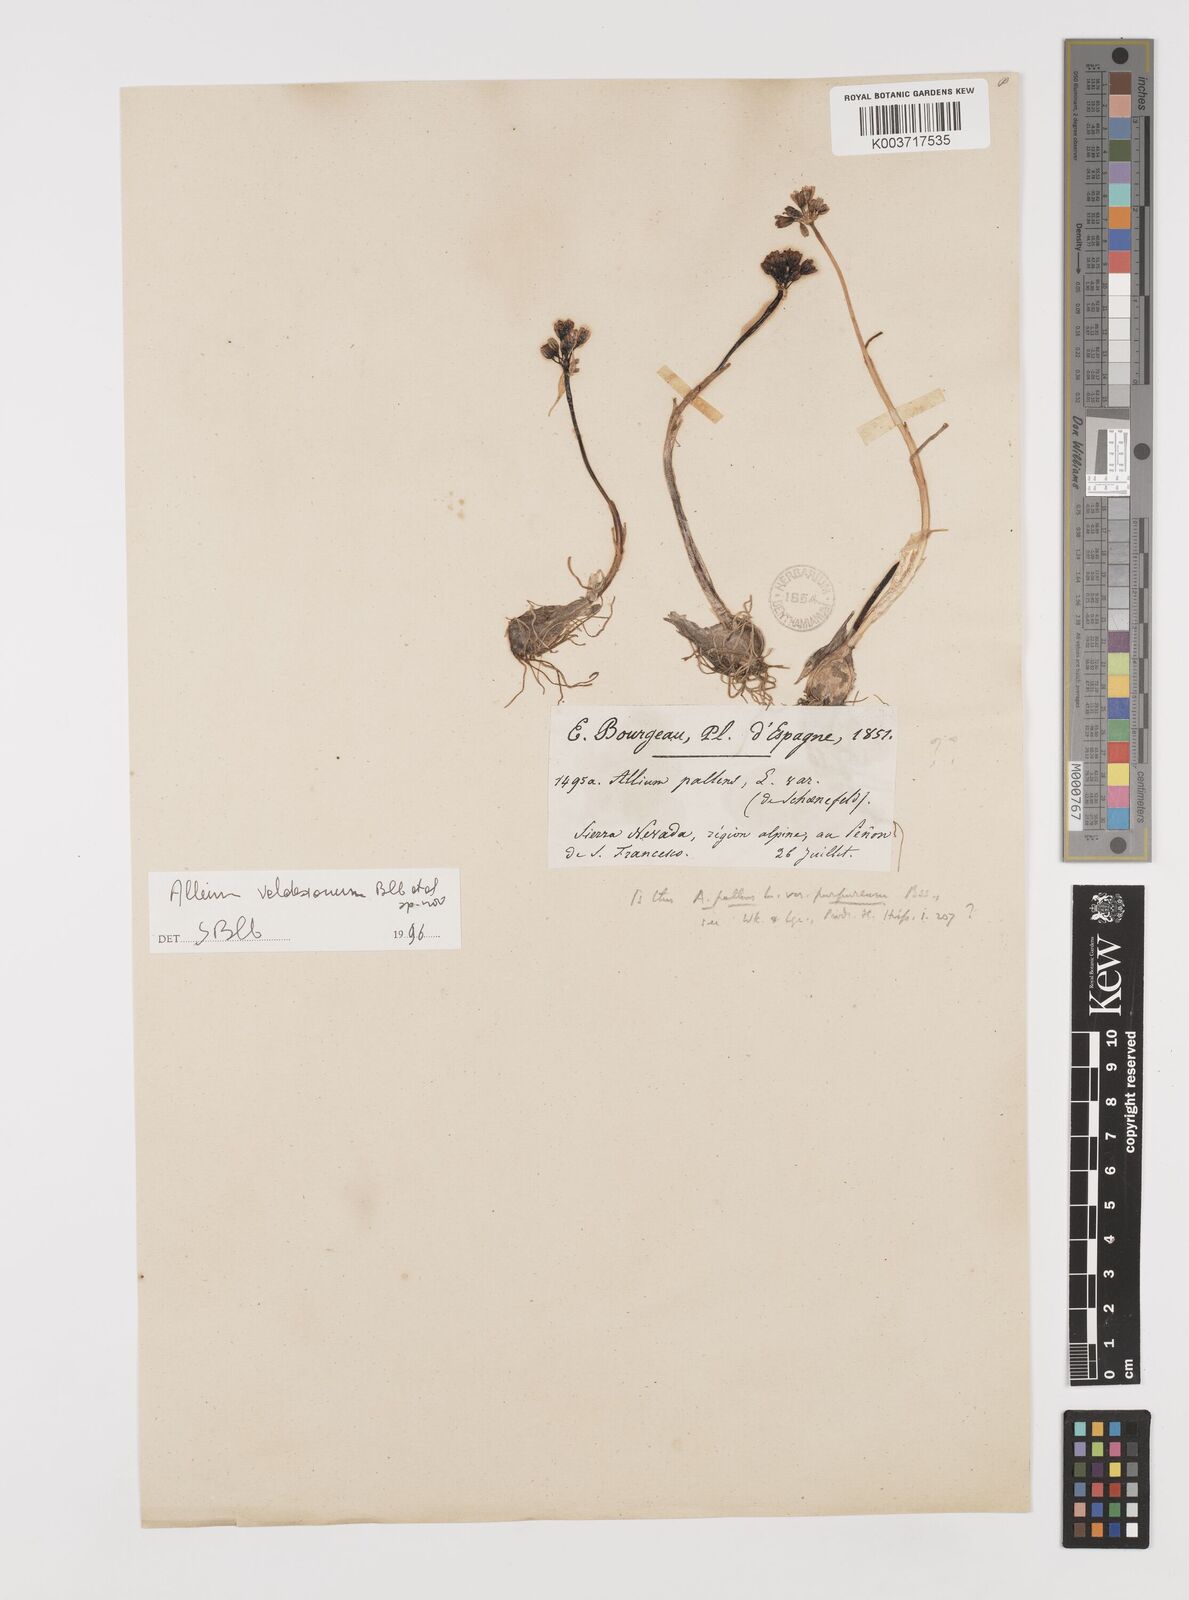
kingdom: Plantae
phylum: Tracheophyta
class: Liliopsida
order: Asparagales
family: Amaryllidaceae
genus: Allium
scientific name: Allium rotundum
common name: Sand leek
